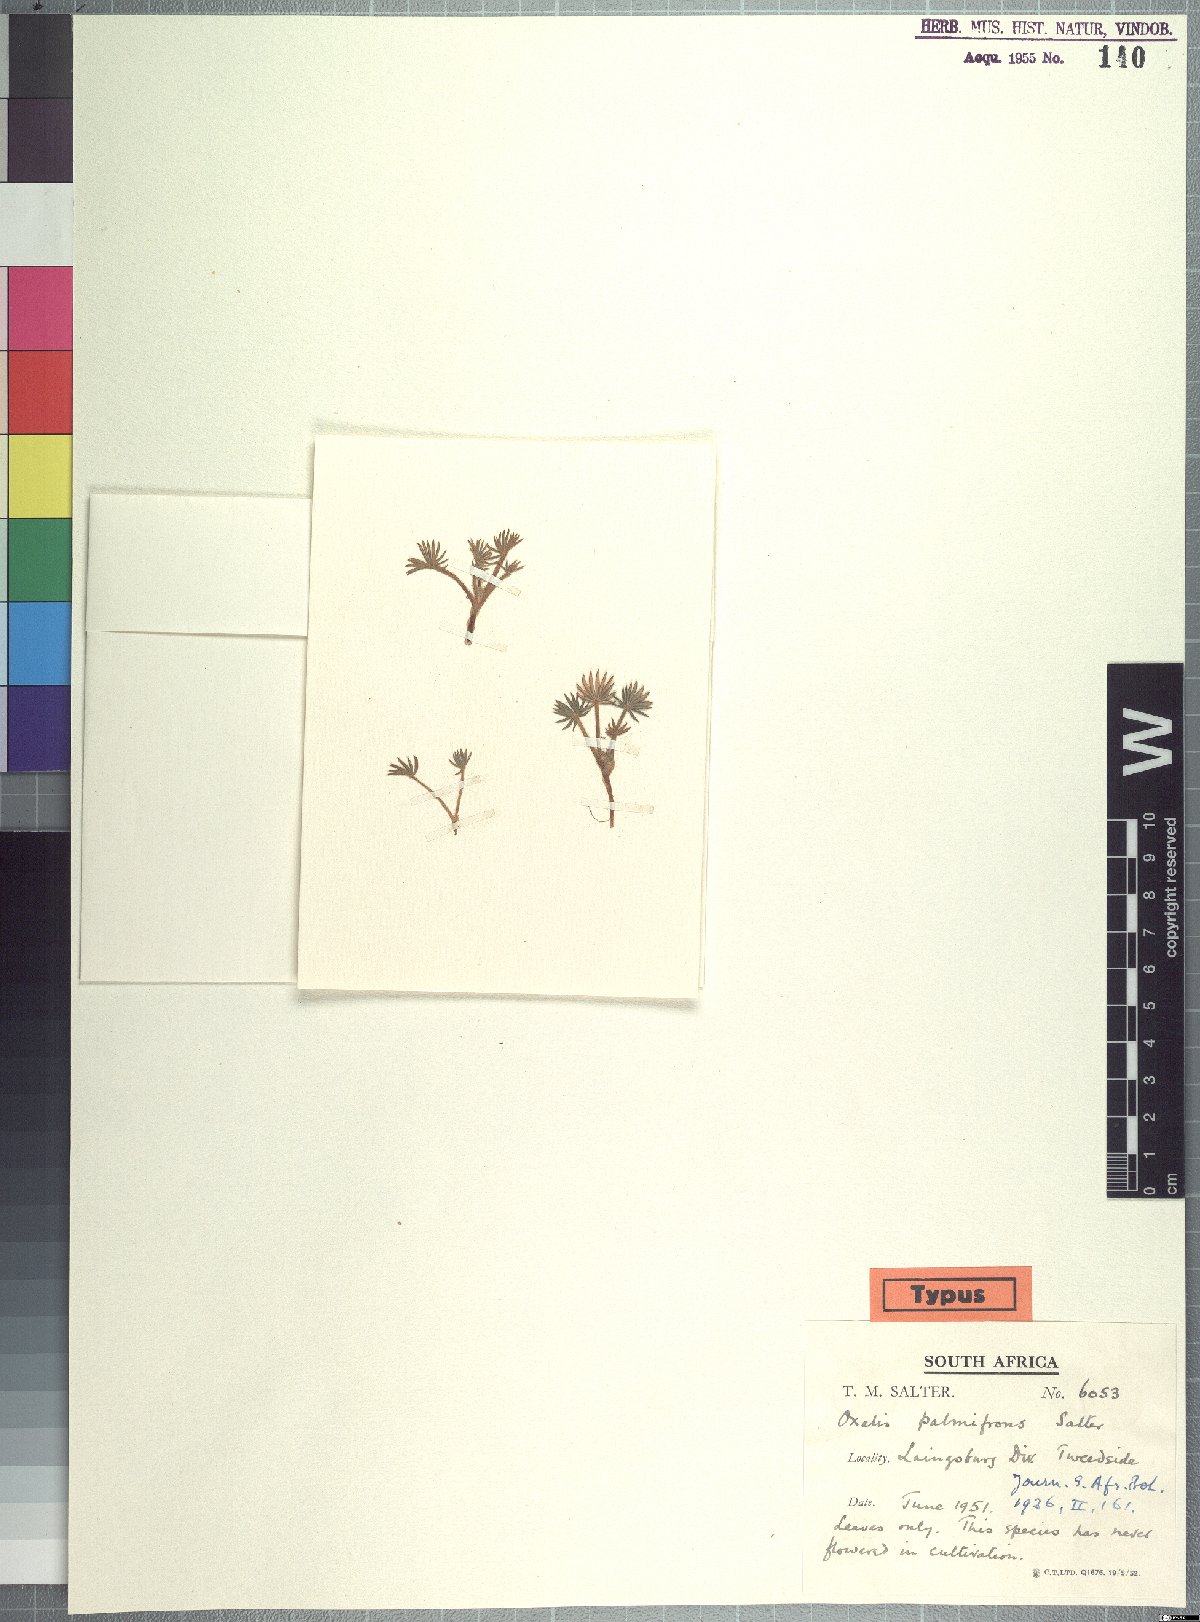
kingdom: Plantae
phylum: Tracheophyta
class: Magnoliopsida
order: Oxalidales
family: Oxalidaceae
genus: Oxalis
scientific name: Oxalis palmifrons
